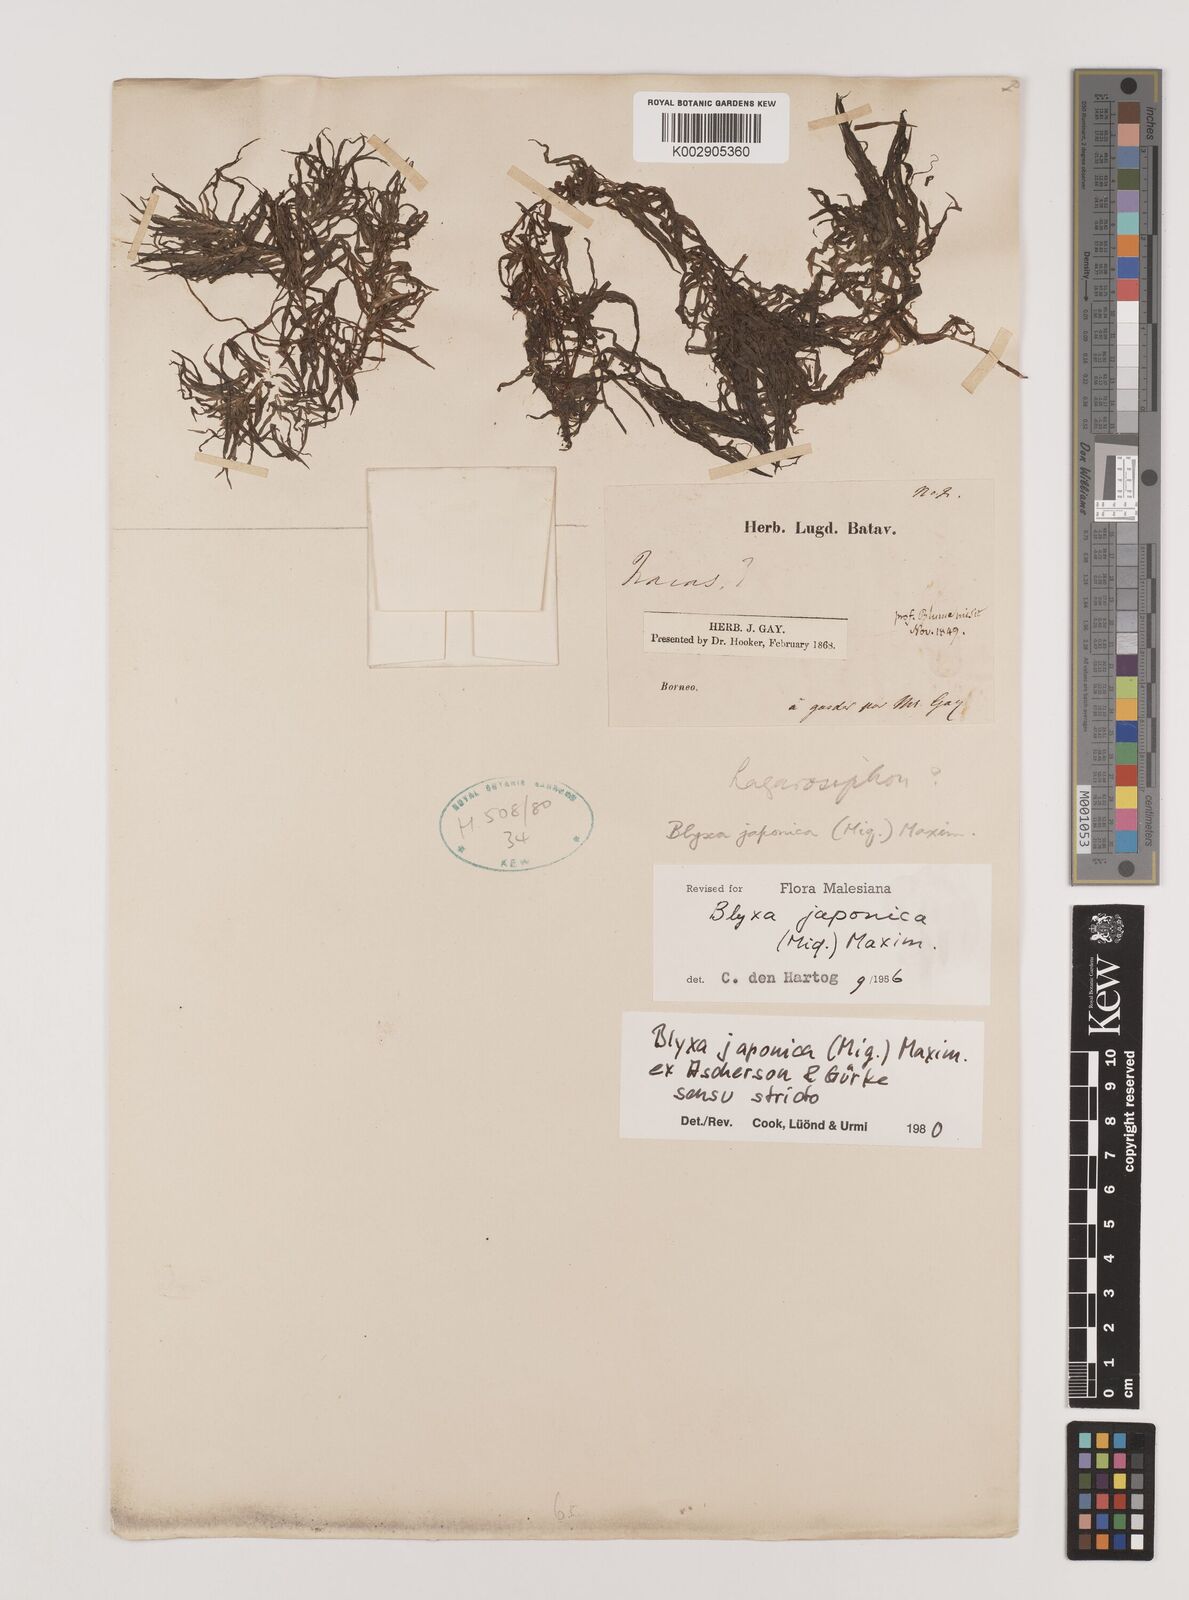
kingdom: Plantae
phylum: Tracheophyta
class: Liliopsida
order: Alismatales
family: Hydrocharitaceae
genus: Blyxa
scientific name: Blyxa japonica
